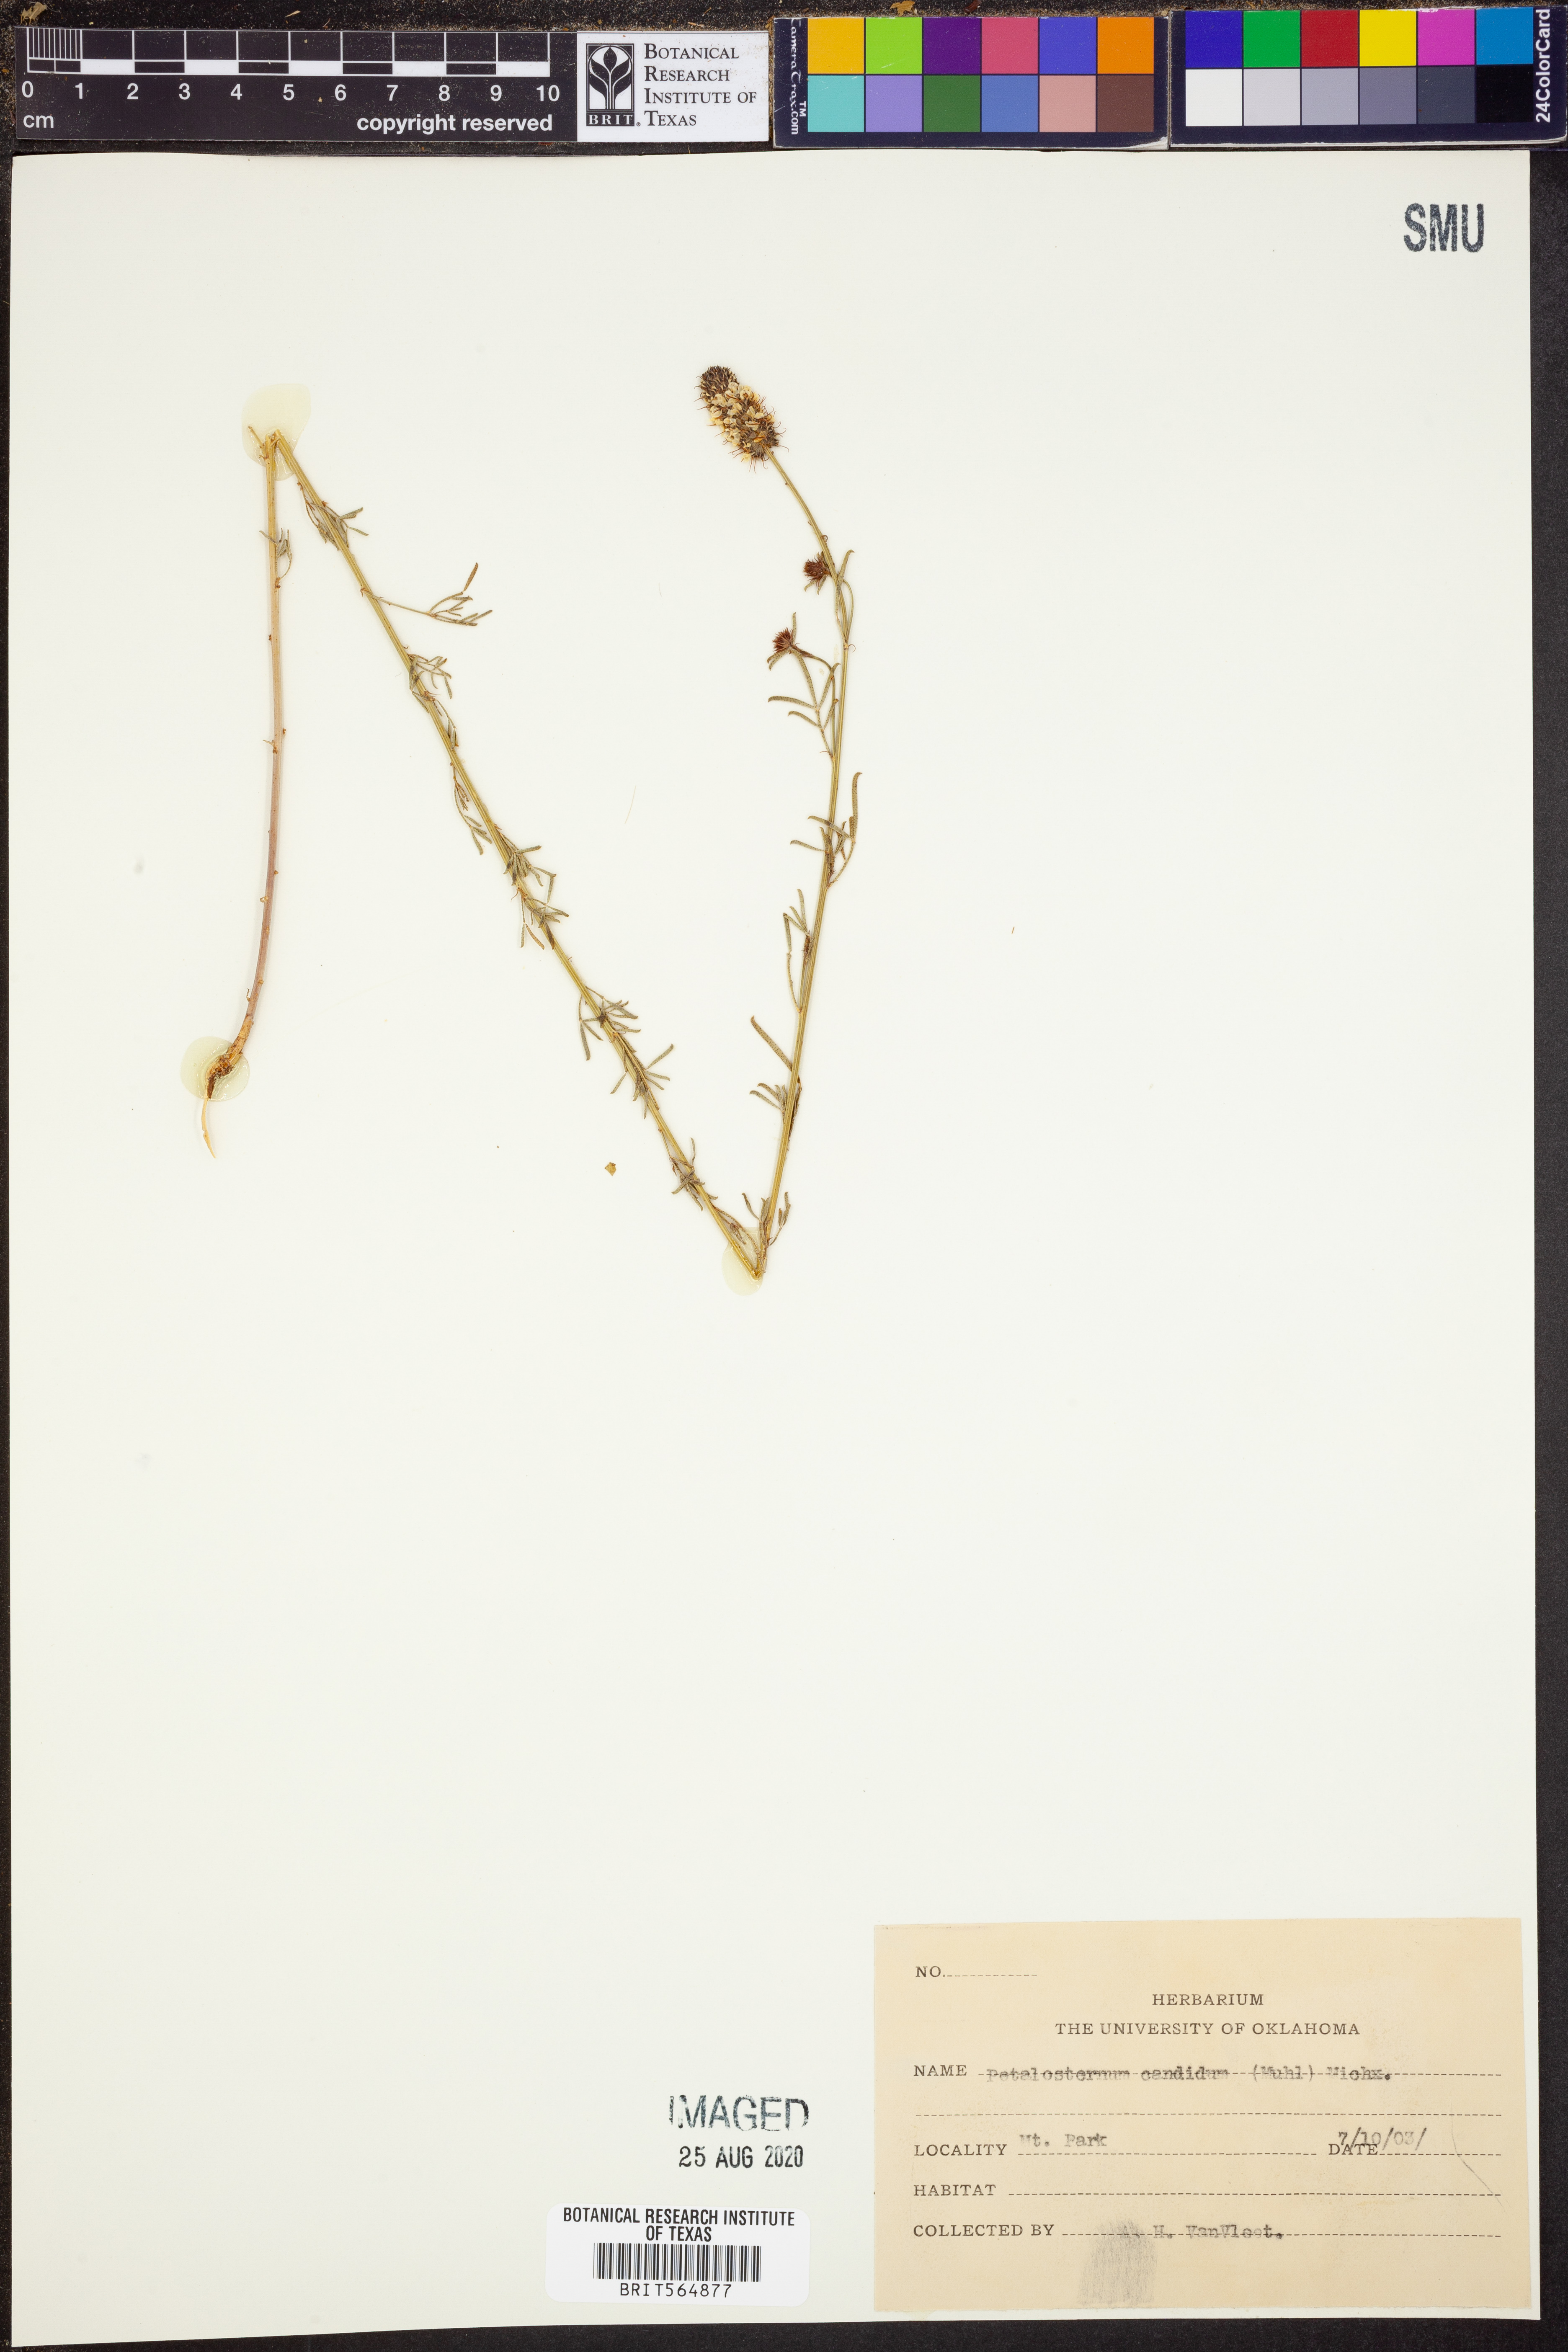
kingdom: Plantae
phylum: Tracheophyta
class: Magnoliopsida
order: Fabales
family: Fabaceae
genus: Dalea
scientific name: Dalea candida
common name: White prairie-clover
